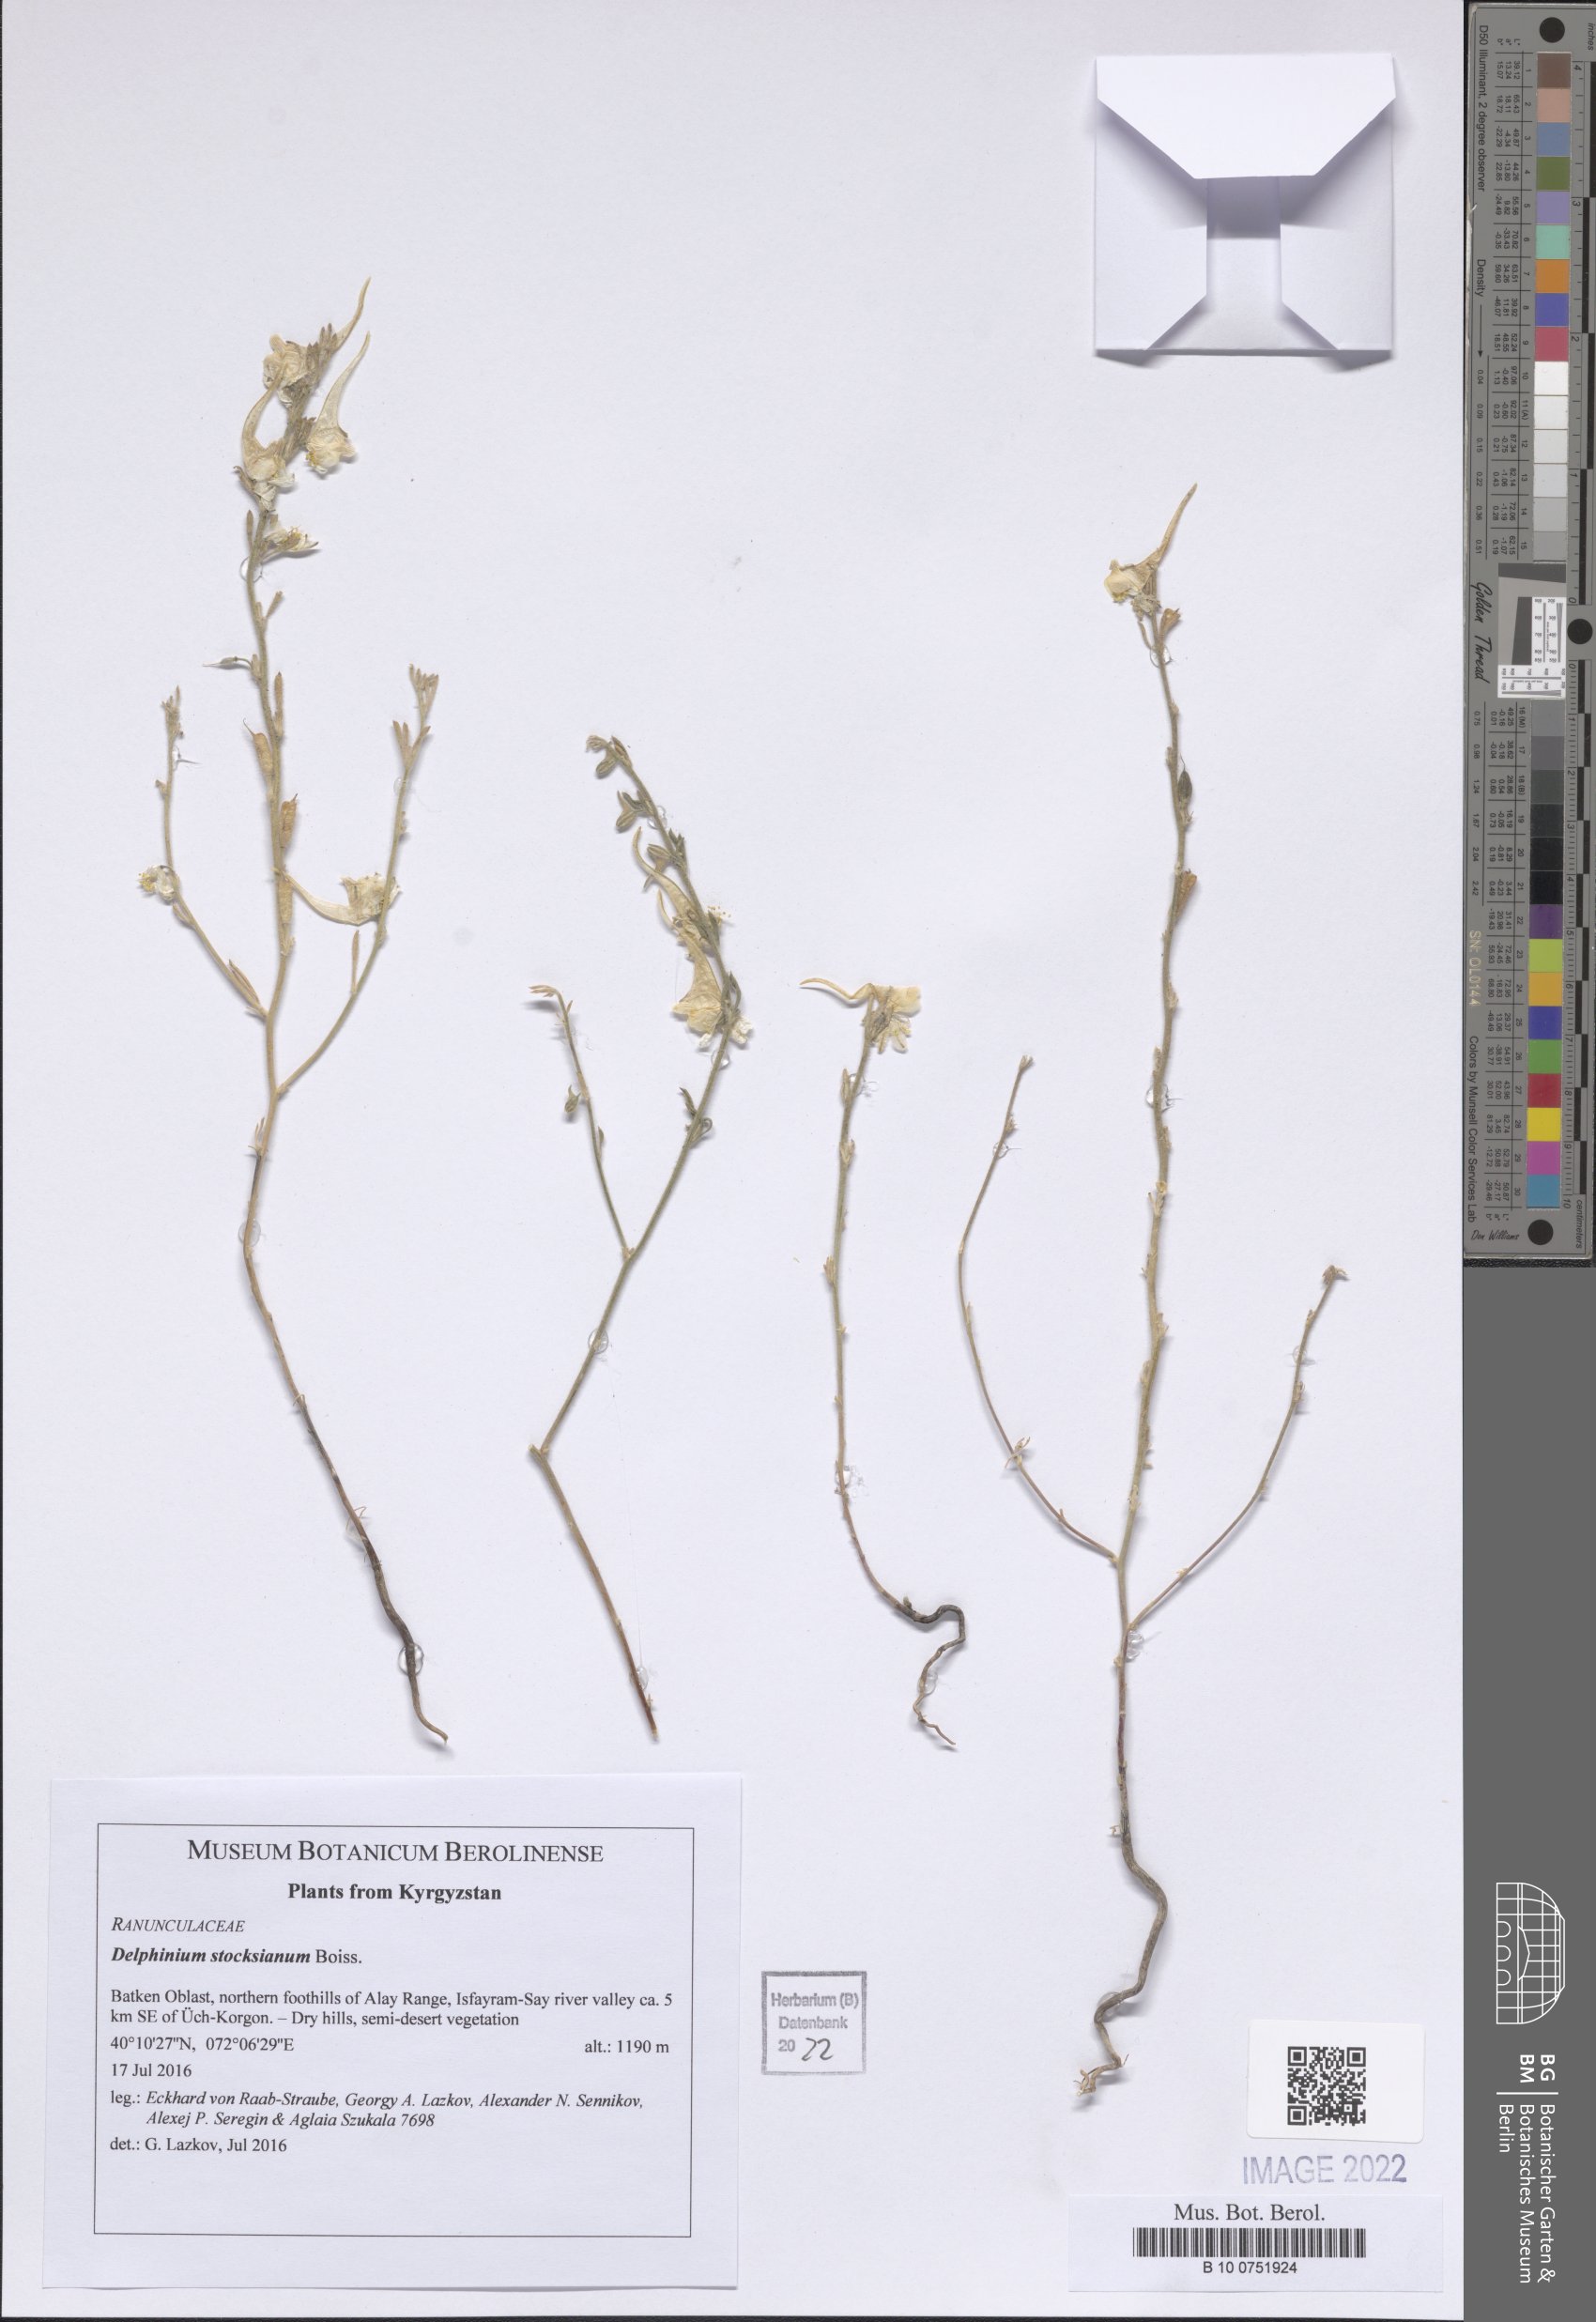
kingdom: Plantae
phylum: Tracheophyta
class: Magnoliopsida
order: Ranunculales
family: Ranunculaceae
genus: Delphinium
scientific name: Delphinium stocksianum
